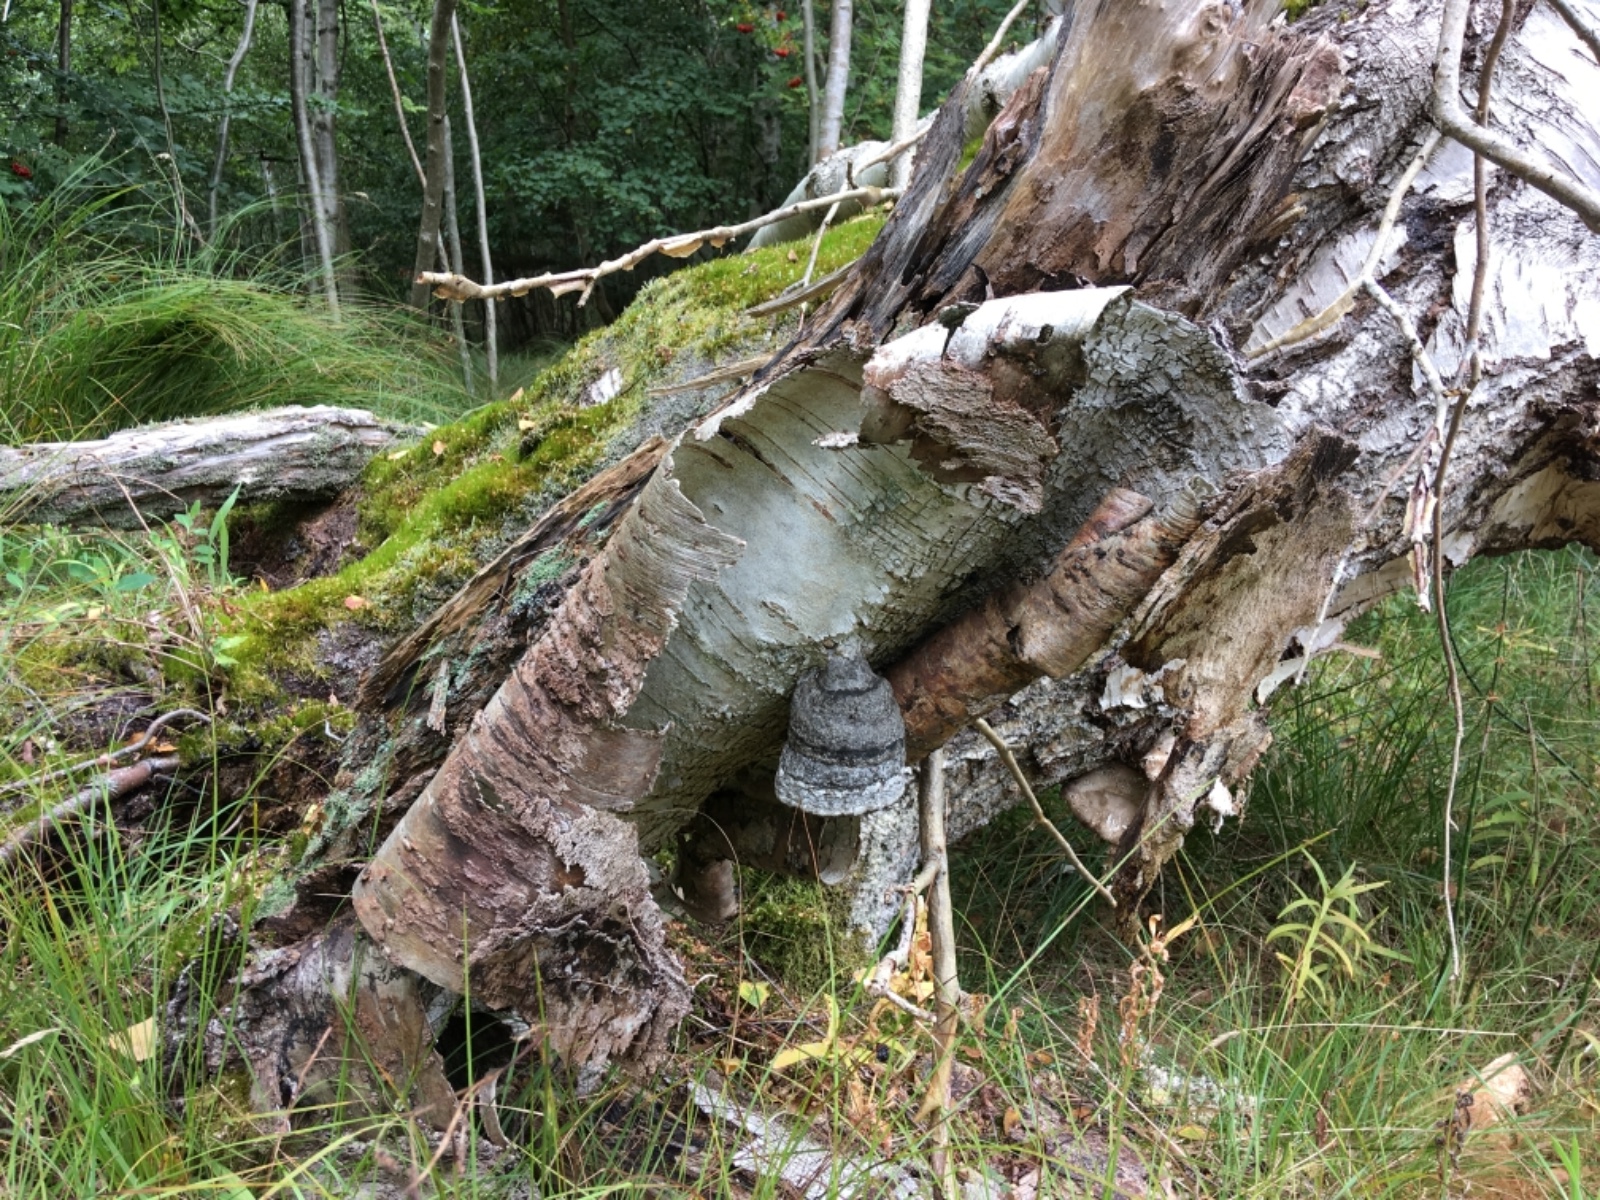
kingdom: Fungi
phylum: Basidiomycota
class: Agaricomycetes
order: Polyporales
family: Polyporaceae
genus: Fomes
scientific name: Fomes fomentarius
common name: tøndersvamp
